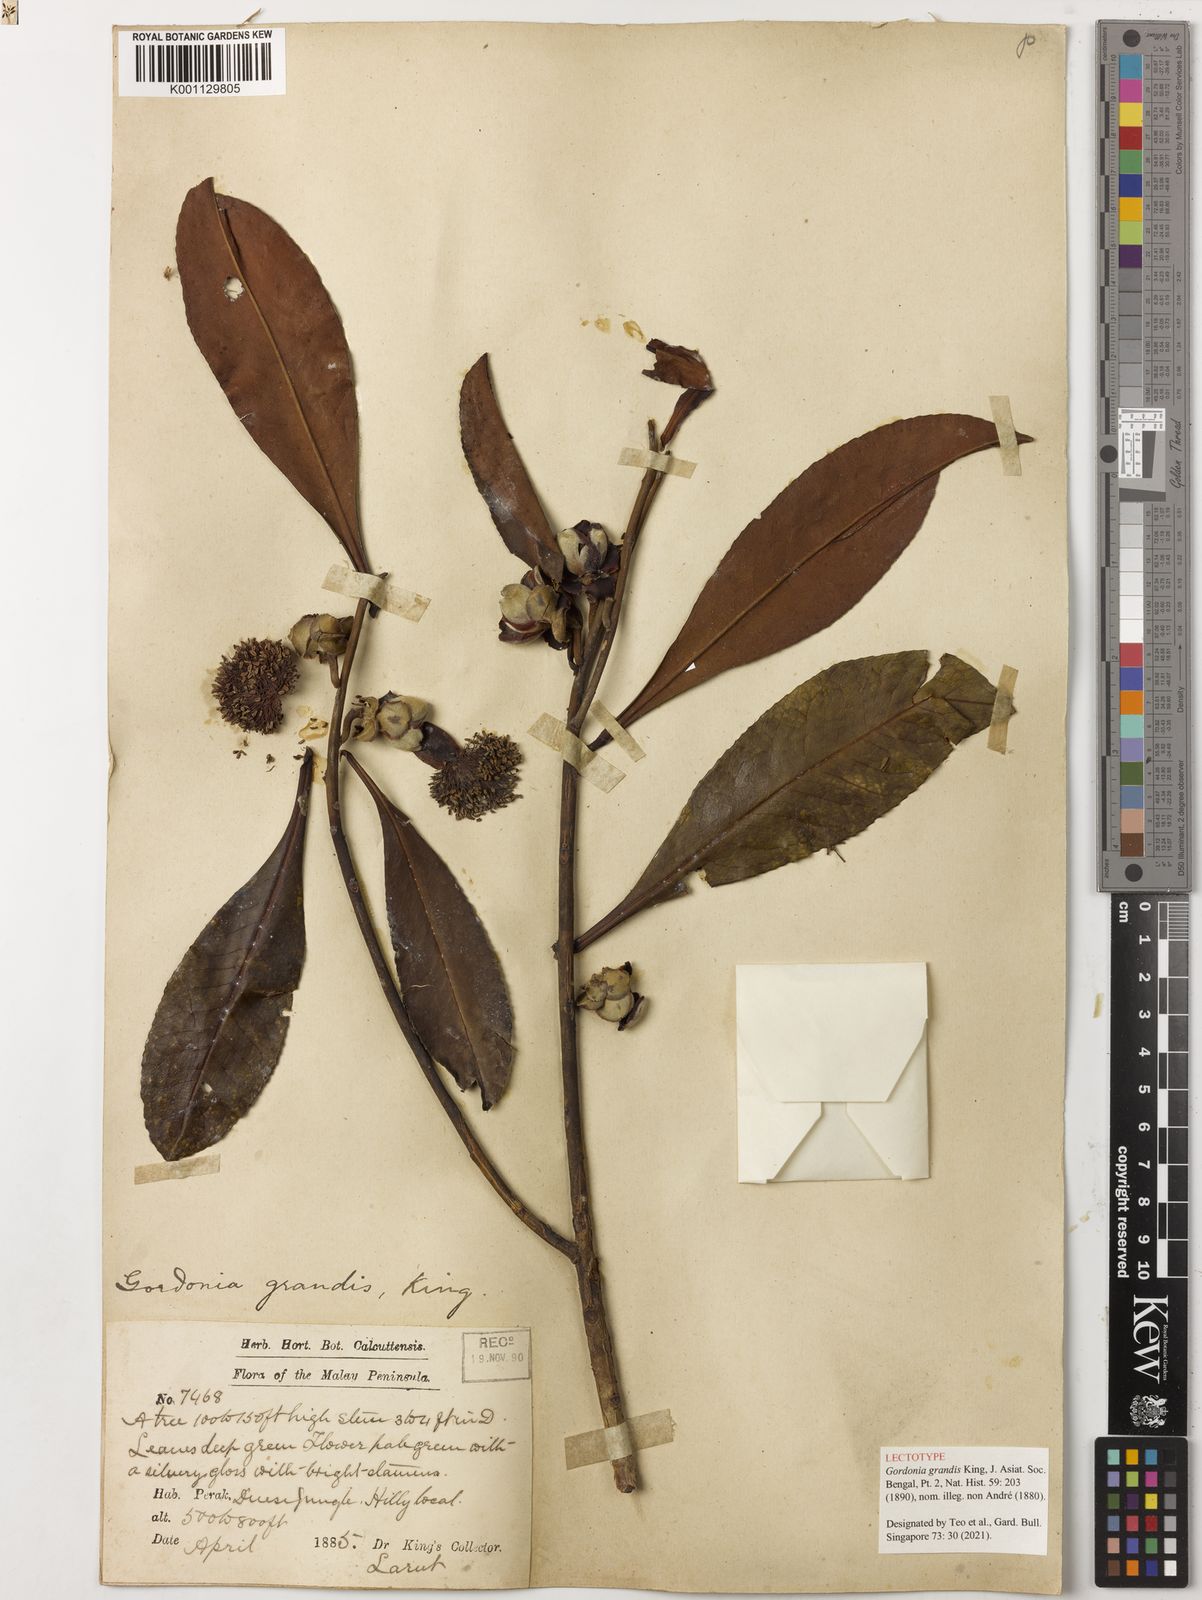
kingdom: Plantae
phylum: Tracheophyta
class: Magnoliopsida
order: Ericales
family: Theaceae
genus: Gordonia
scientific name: Gordonia
